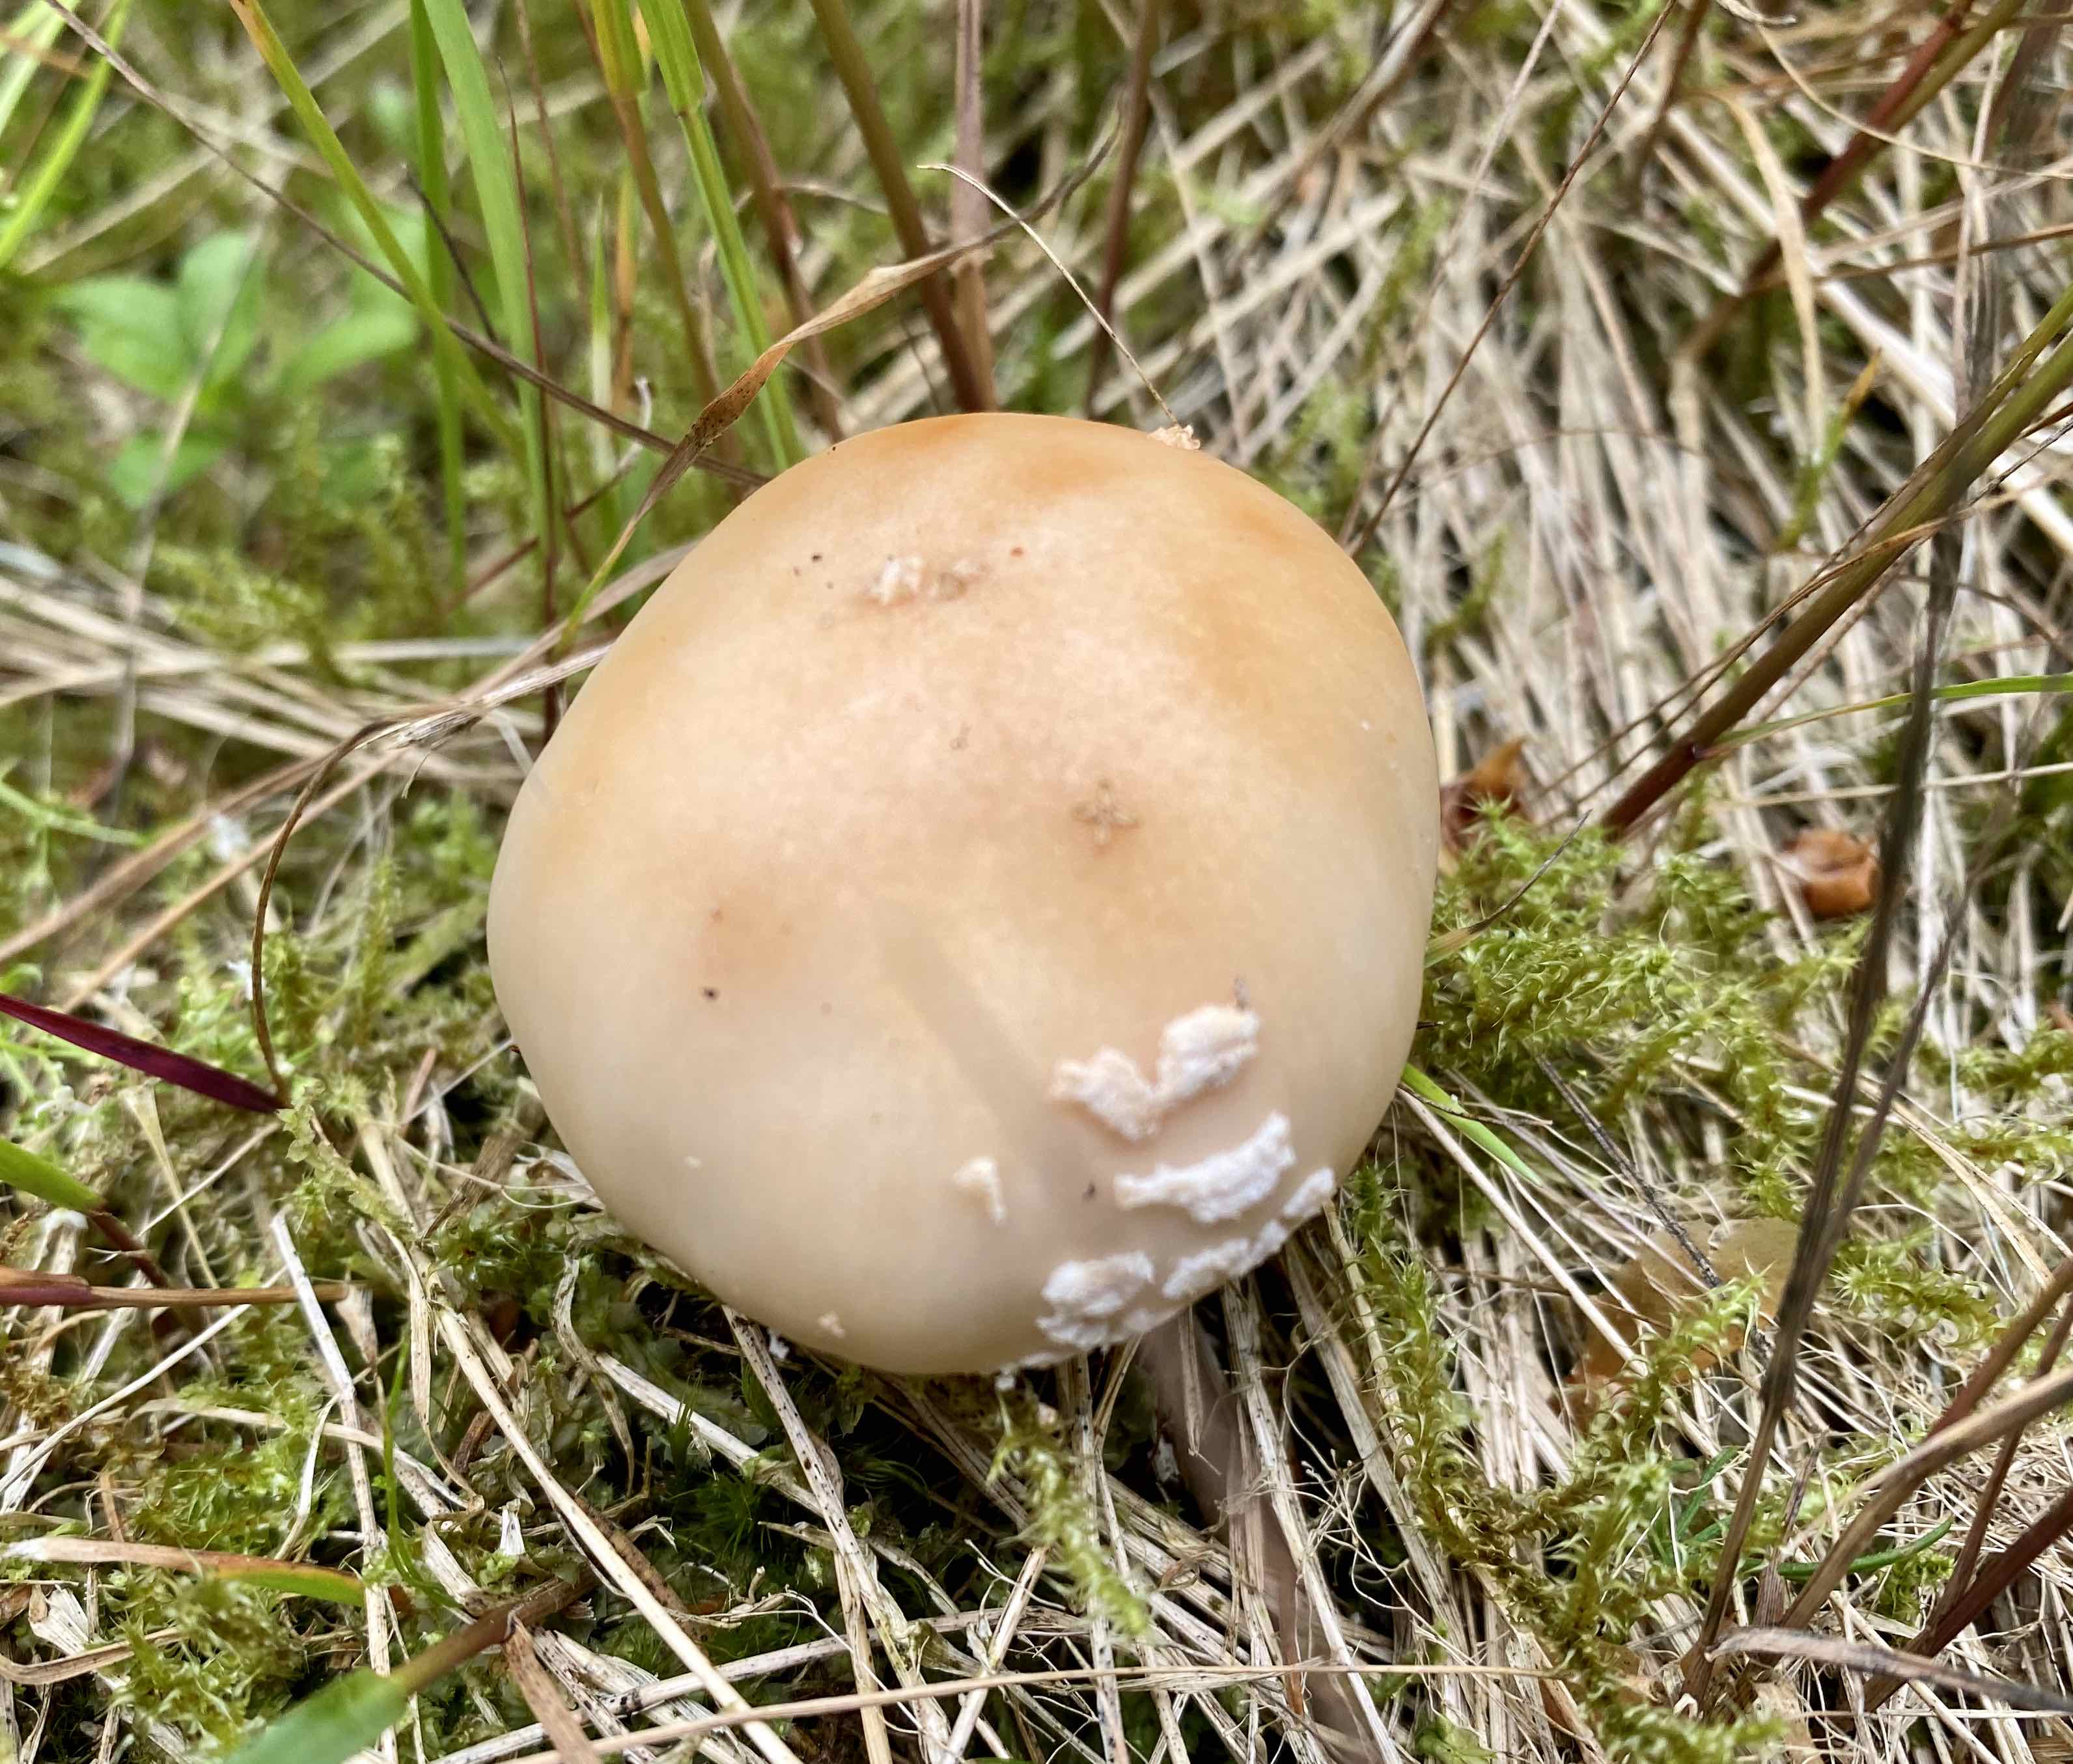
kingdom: Fungi
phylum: Basidiomycota
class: Agaricomycetes
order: Agaricales
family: Amanitaceae
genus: Amanita
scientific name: Amanita rubescens
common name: rødmende fluesvamp
